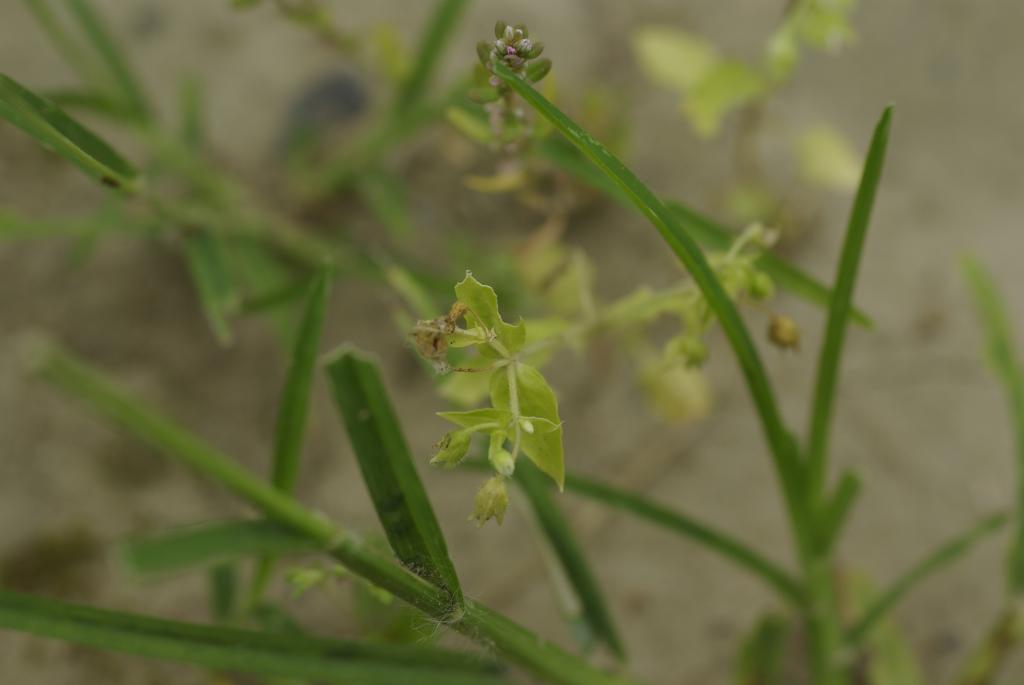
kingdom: Plantae
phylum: Tracheophyta
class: Magnoliopsida
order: Caryophyllales
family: Caryophyllaceae
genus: Stellaria
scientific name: Stellaria aquatica
